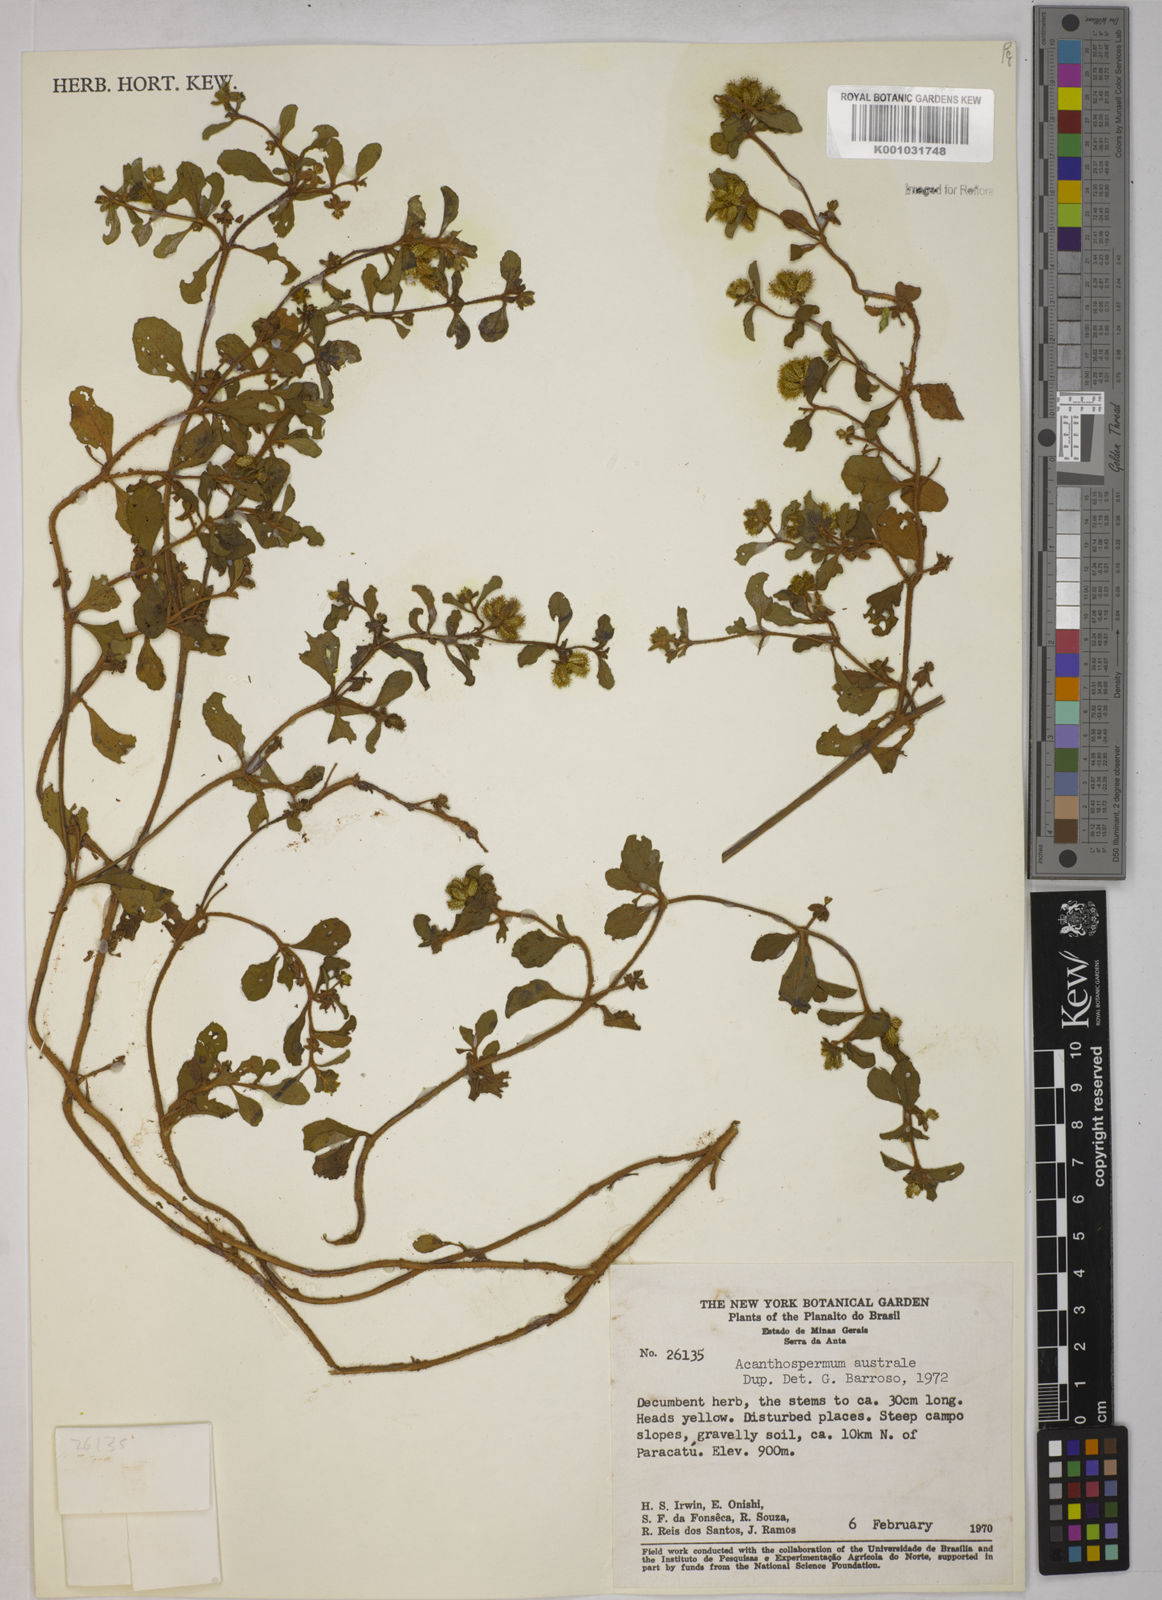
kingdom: Plantae
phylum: Tracheophyta
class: Magnoliopsida
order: Asterales
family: Asteraceae
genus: Acanthospermum
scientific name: Acanthospermum australe
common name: Paraguayan starbur
